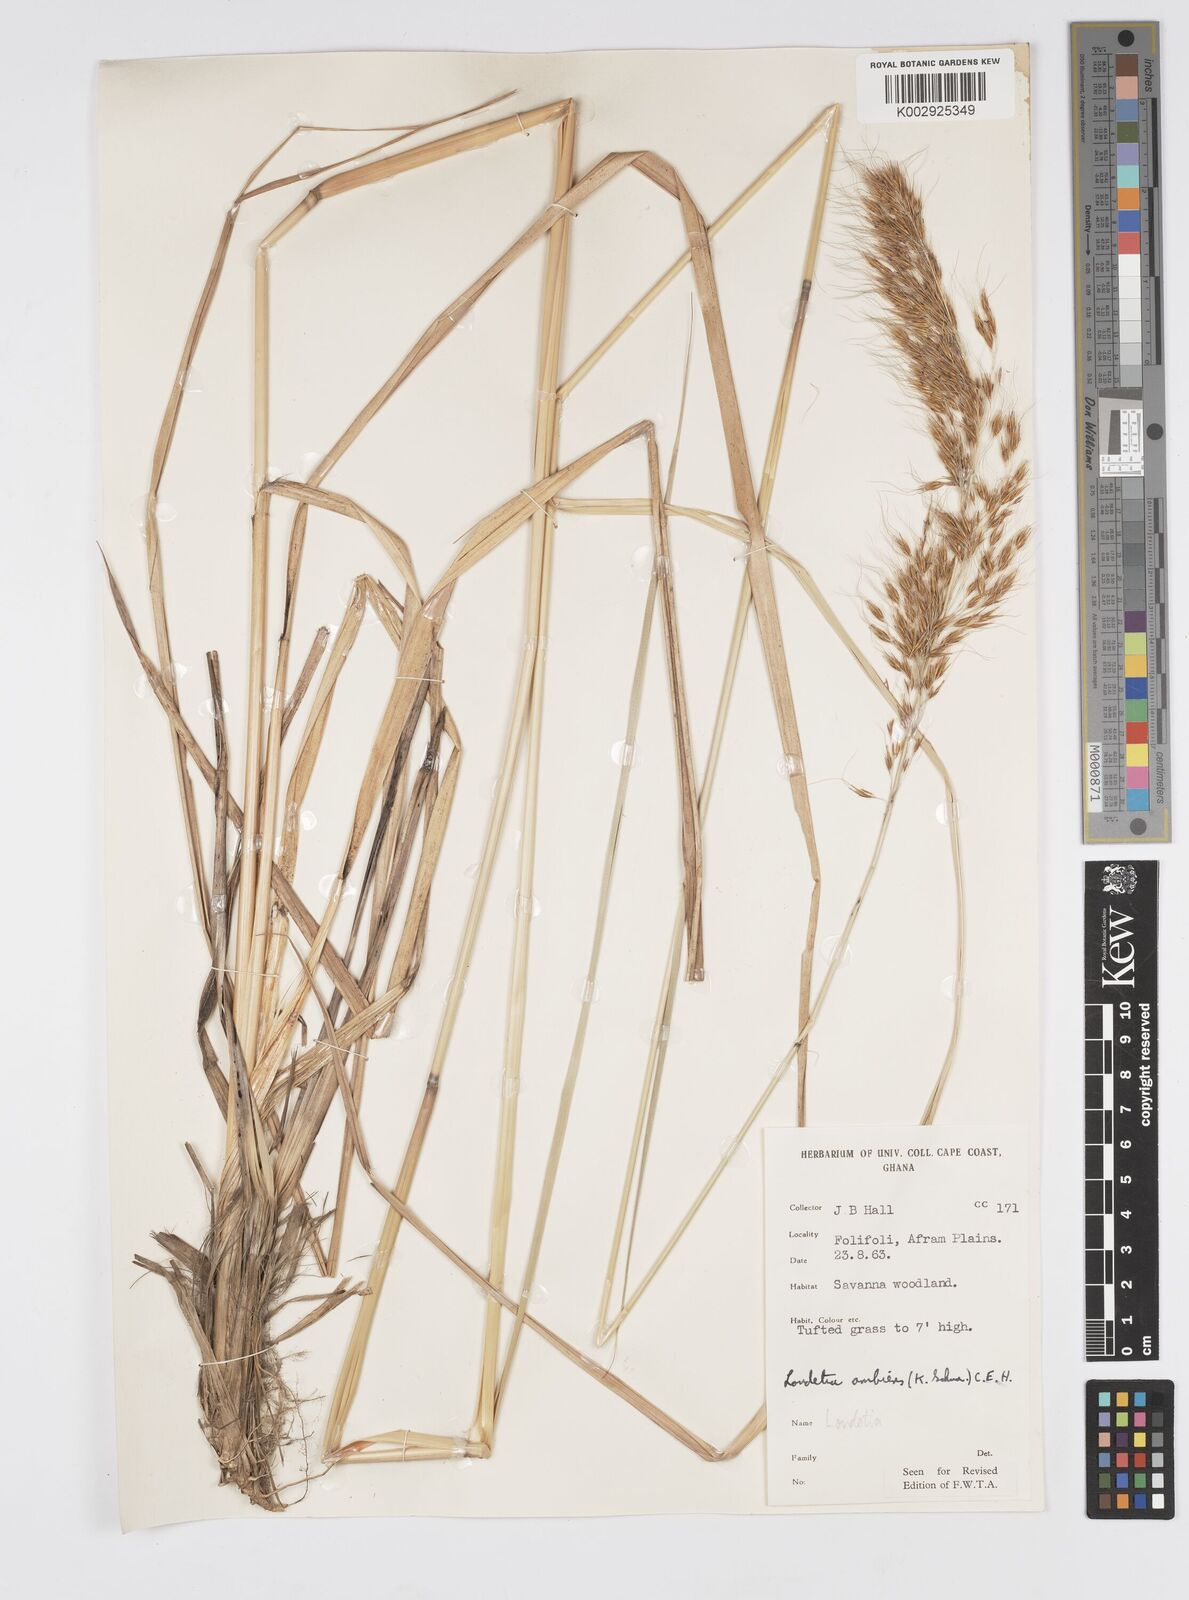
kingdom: Plantae
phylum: Tracheophyta
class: Liliopsida
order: Poales
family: Poaceae
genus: Loudetiopsis
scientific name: Loudetiopsis ambiens
